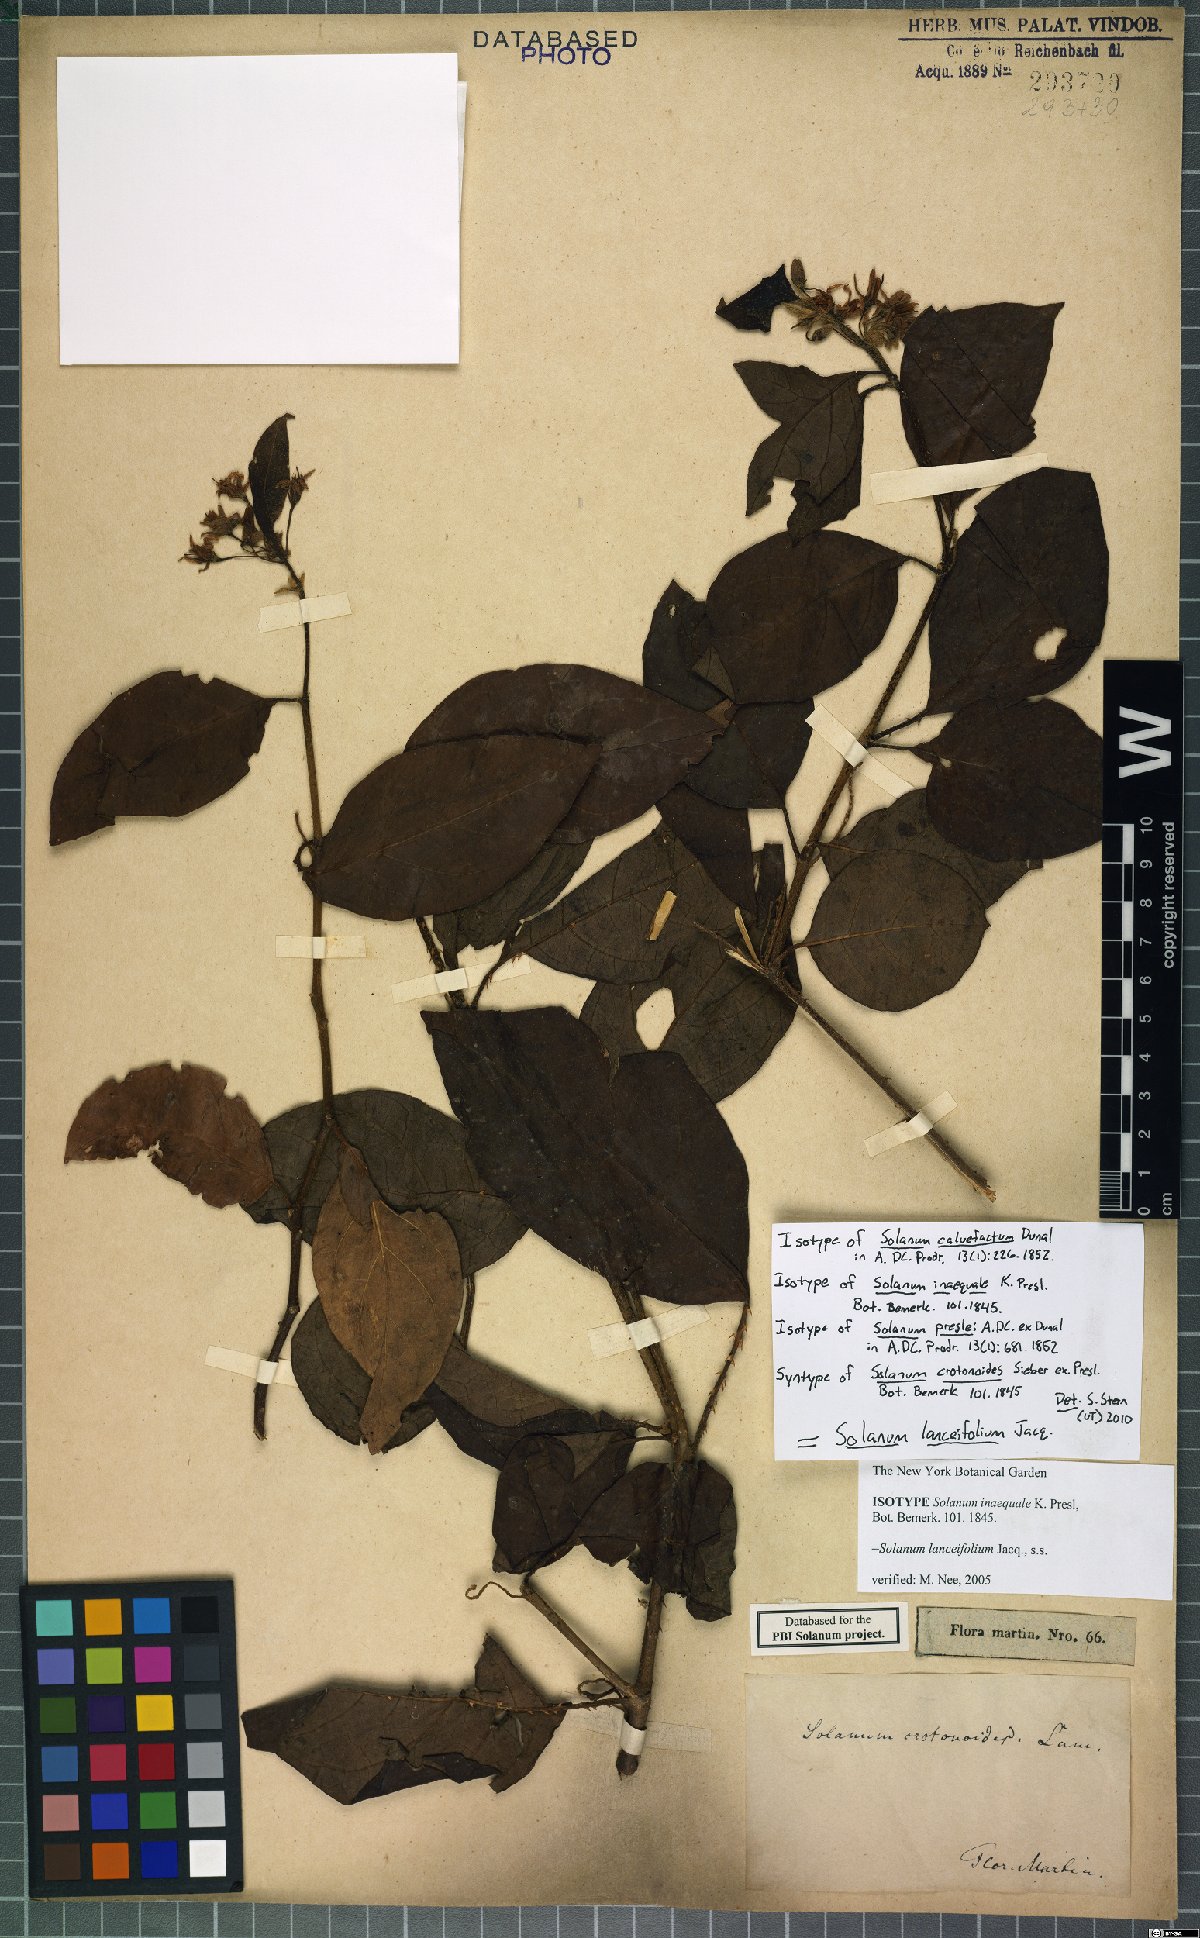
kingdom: Plantae
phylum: Tracheophyta
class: Magnoliopsida
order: Solanales
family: Solanaceae
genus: Solanum
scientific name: Solanum lanceifolium
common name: Lanceleaf nightshade
